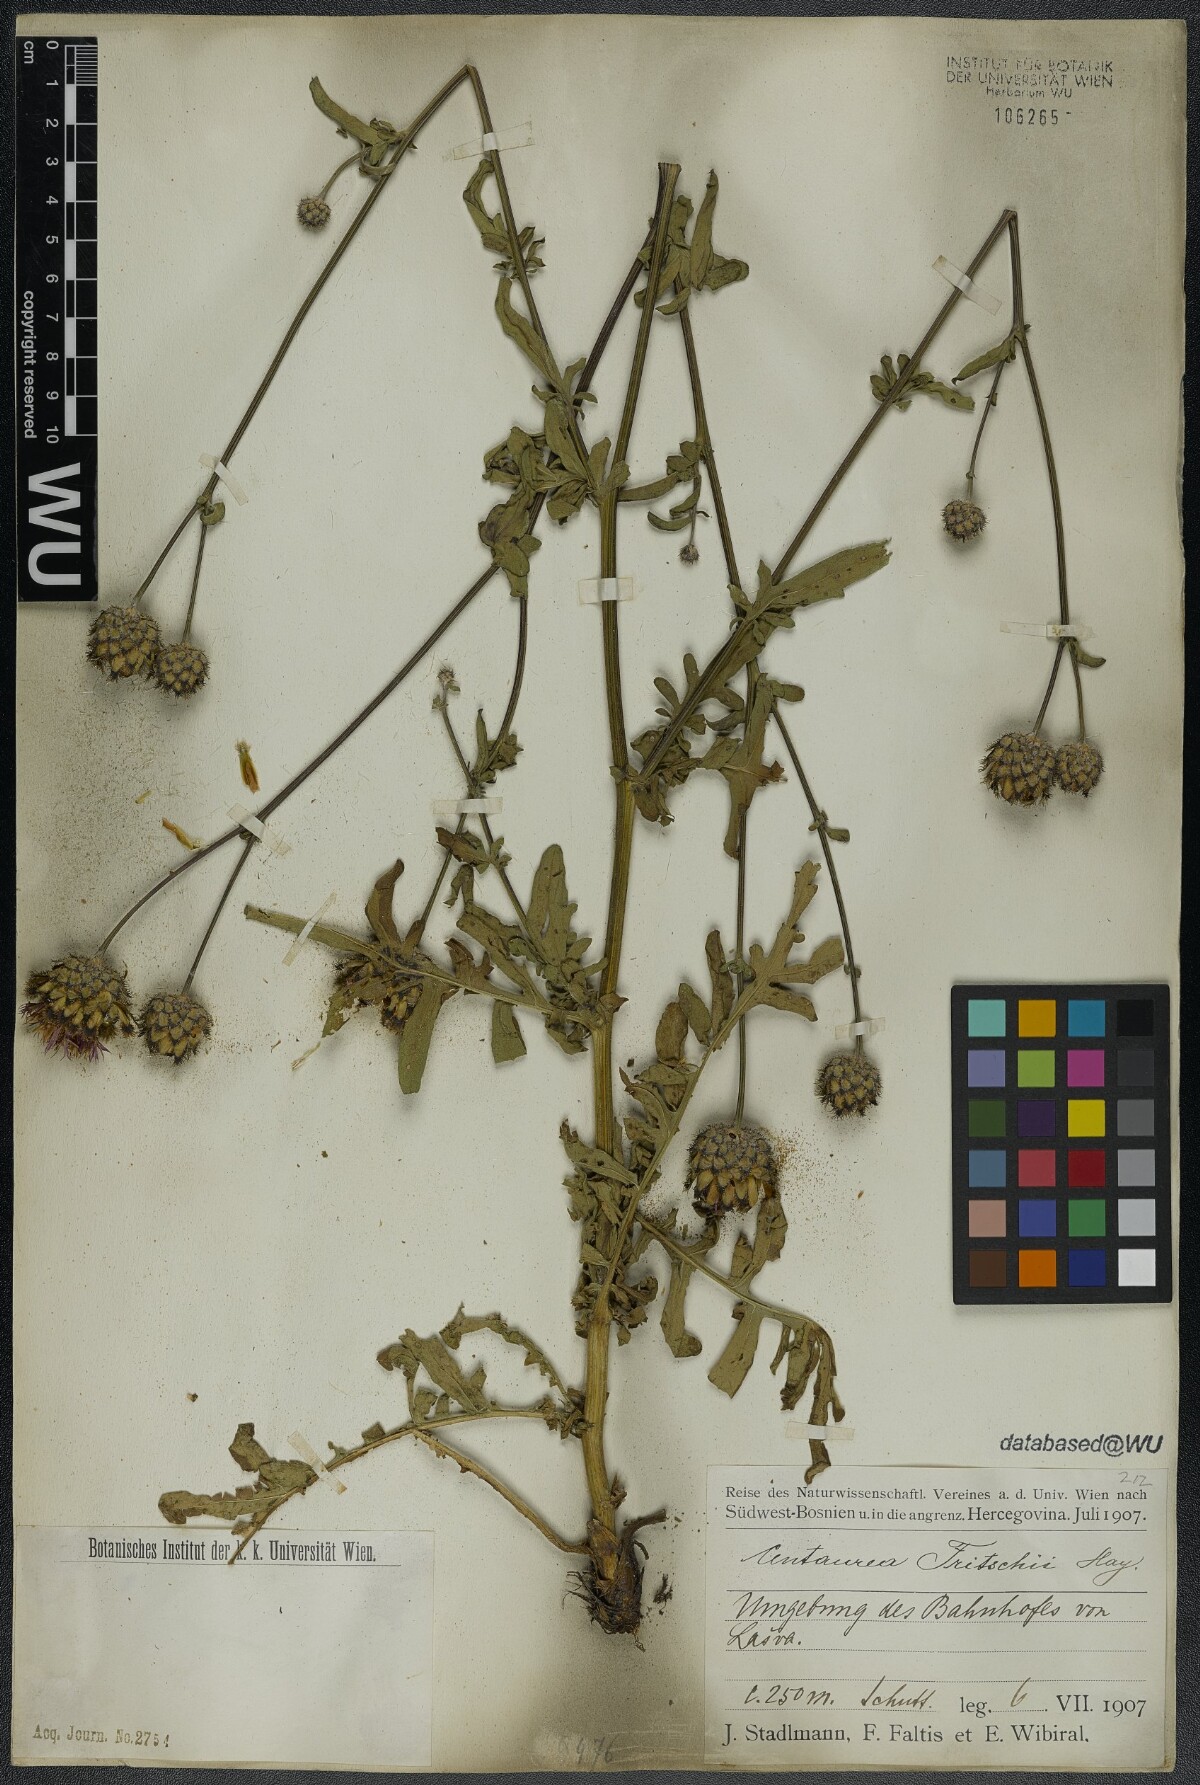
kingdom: Plantae
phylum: Tracheophyta
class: Magnoliopsida
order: Asterales
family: Asteraceae
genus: Centaurea
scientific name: Centaurea scabiosa
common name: Greater knapweed
